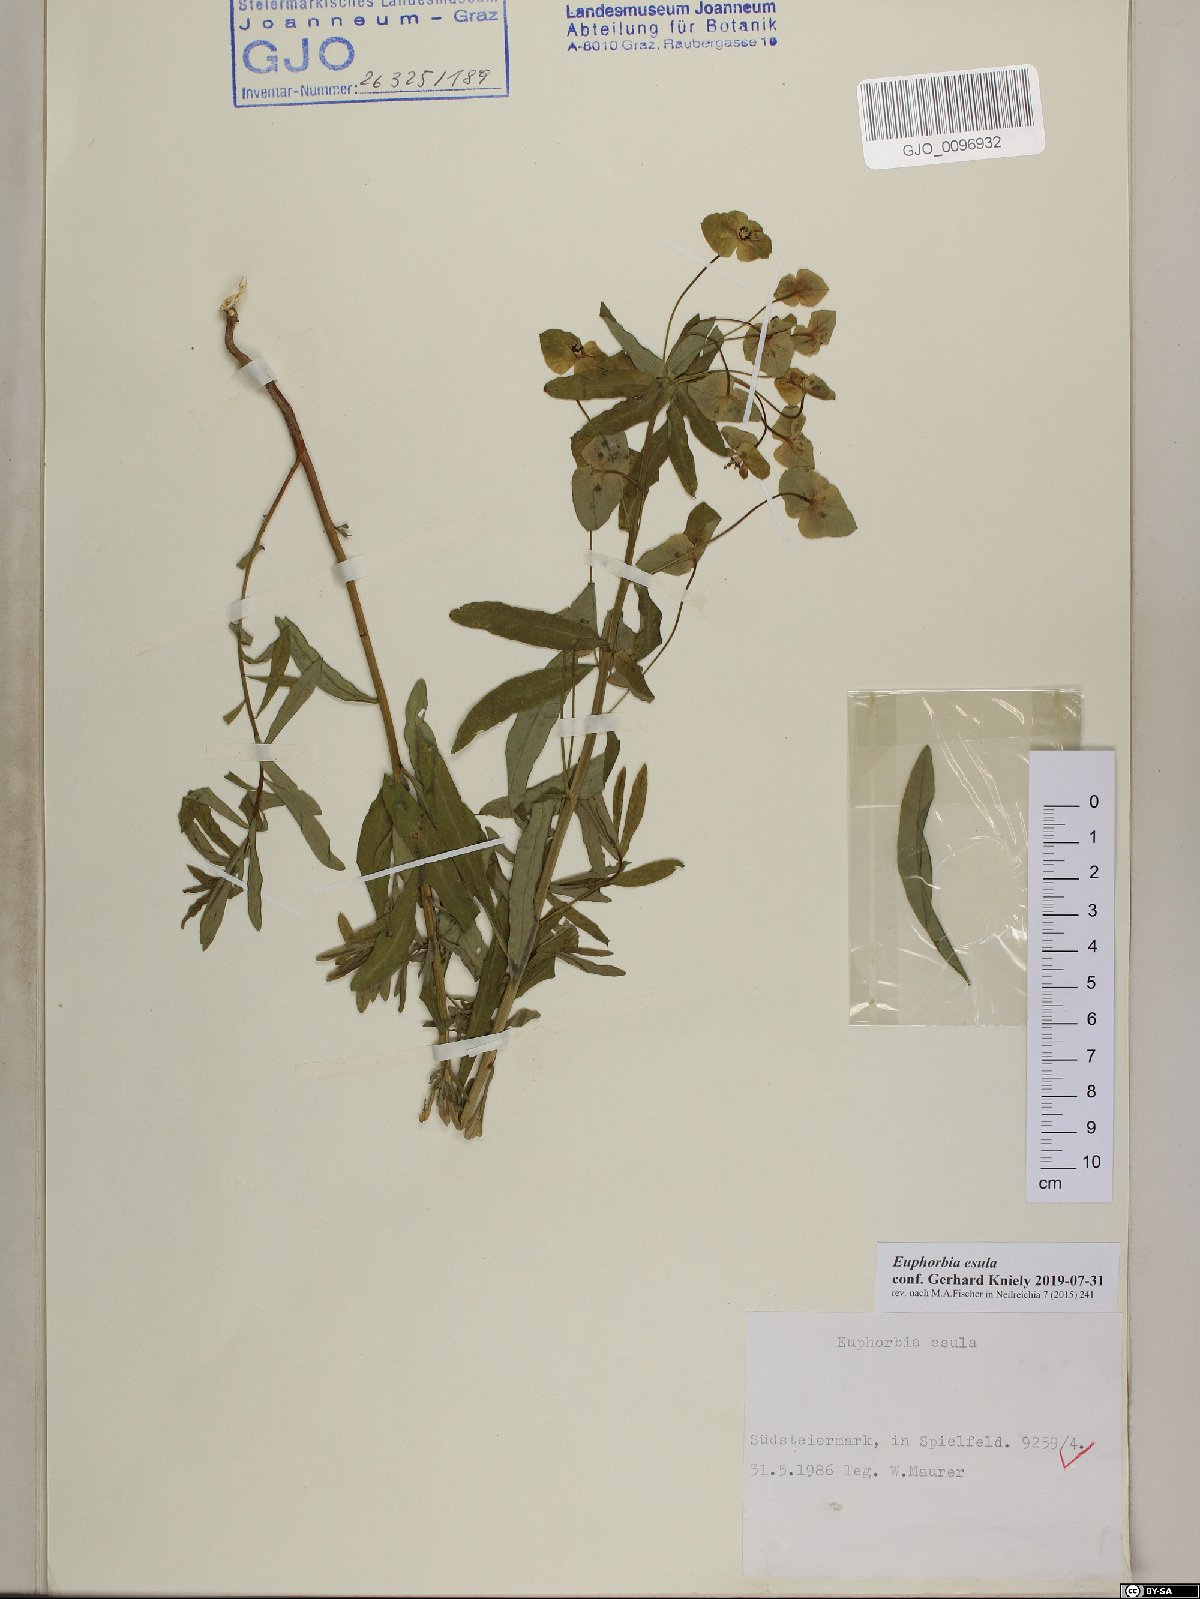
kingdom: Plantae
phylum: Tracheophyta
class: Magnoliopsida
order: Malpighiales
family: Euphorbiaceae
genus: Euphorbia
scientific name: Euphorbia esula
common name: Leafy spurge
